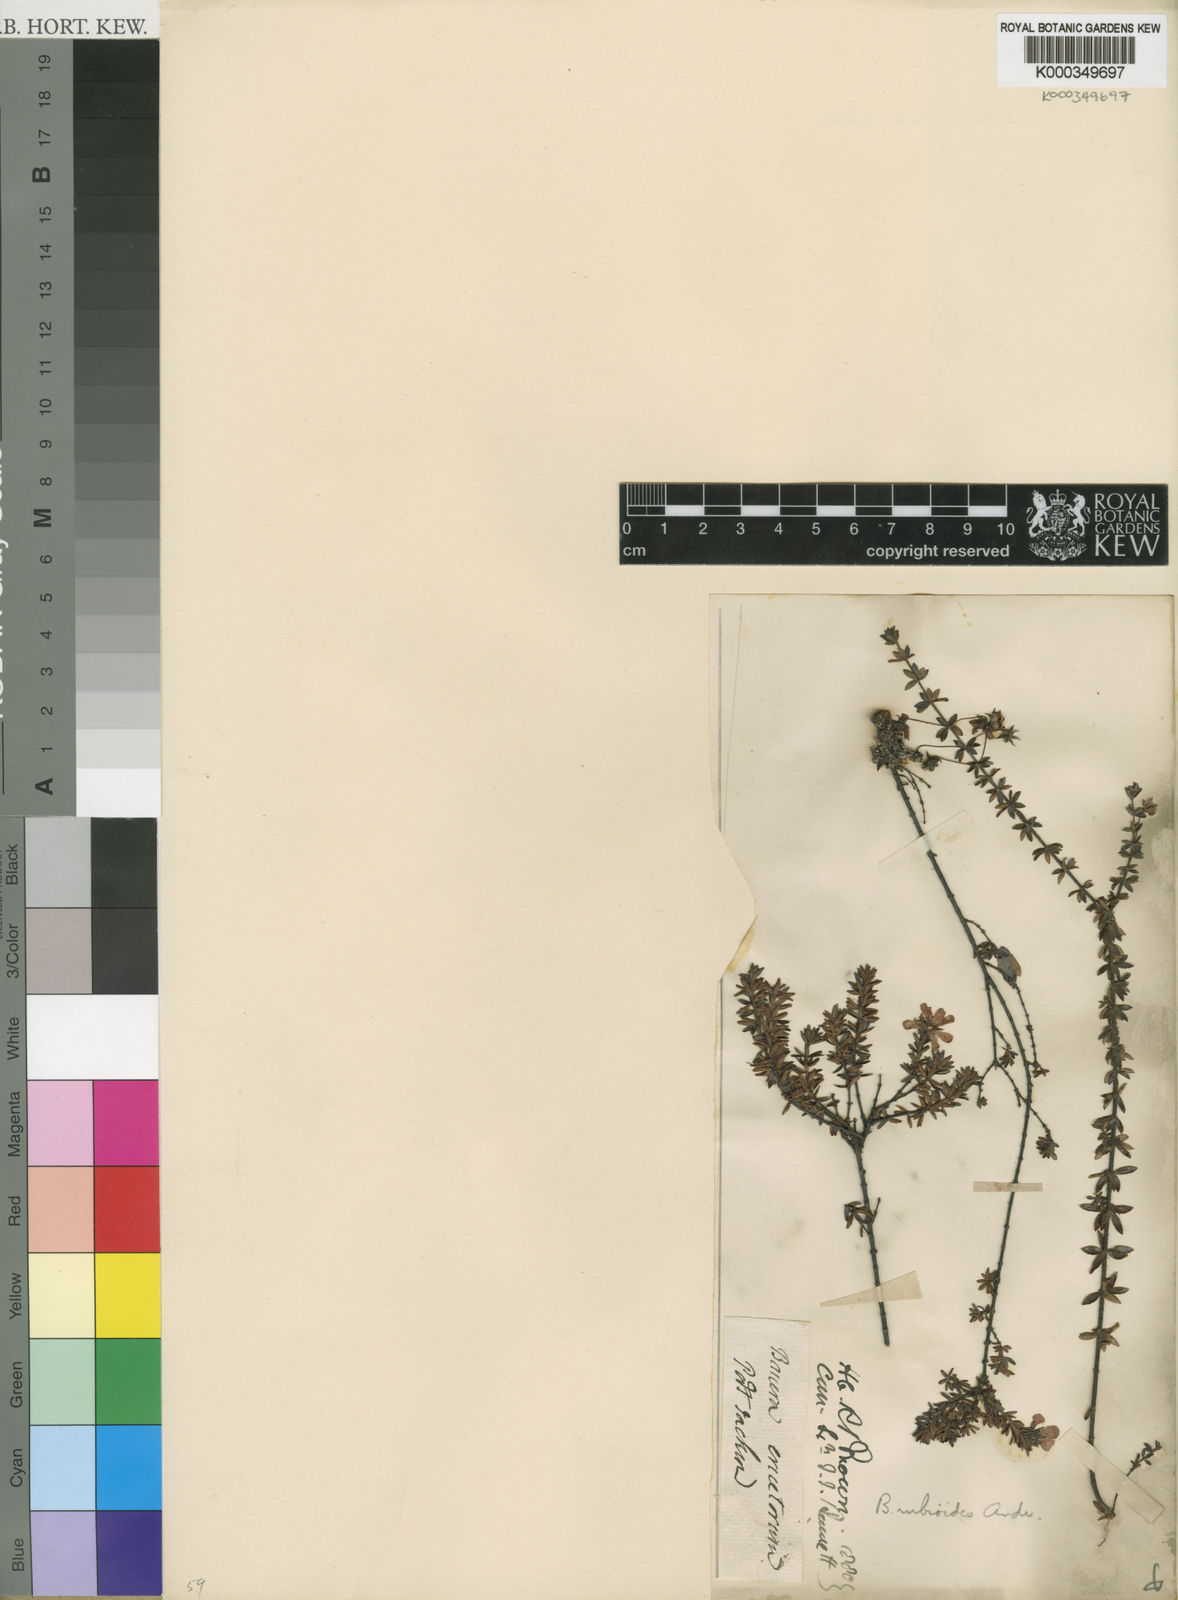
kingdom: Plantae
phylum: Tracheophyta
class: Magnoliopsida
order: Oxalidales
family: Cunoniaceae
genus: Bauera
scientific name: Bauera rubioides
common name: River-rose
